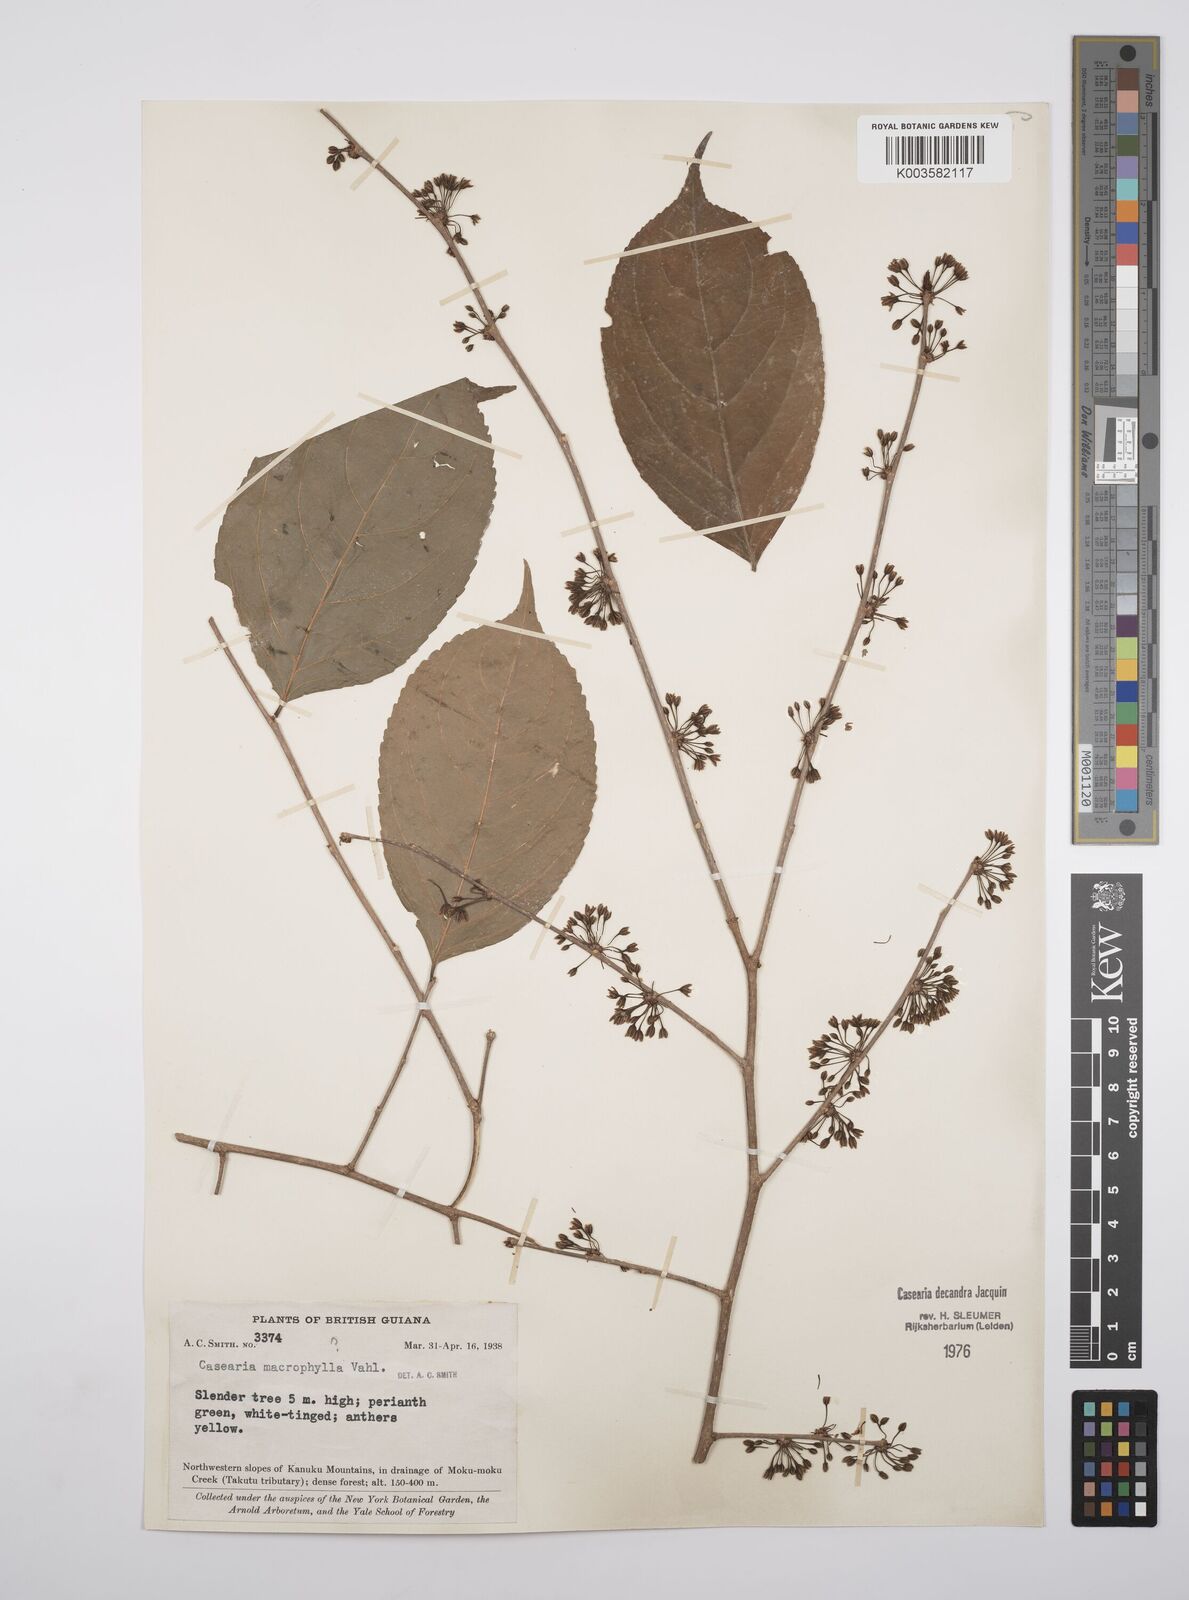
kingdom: Plantae
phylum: Tracheophyta
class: Magnoliopsida
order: Malpighiales
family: Salicaceae
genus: Casearia
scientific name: Casearia decandra
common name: Crack open
